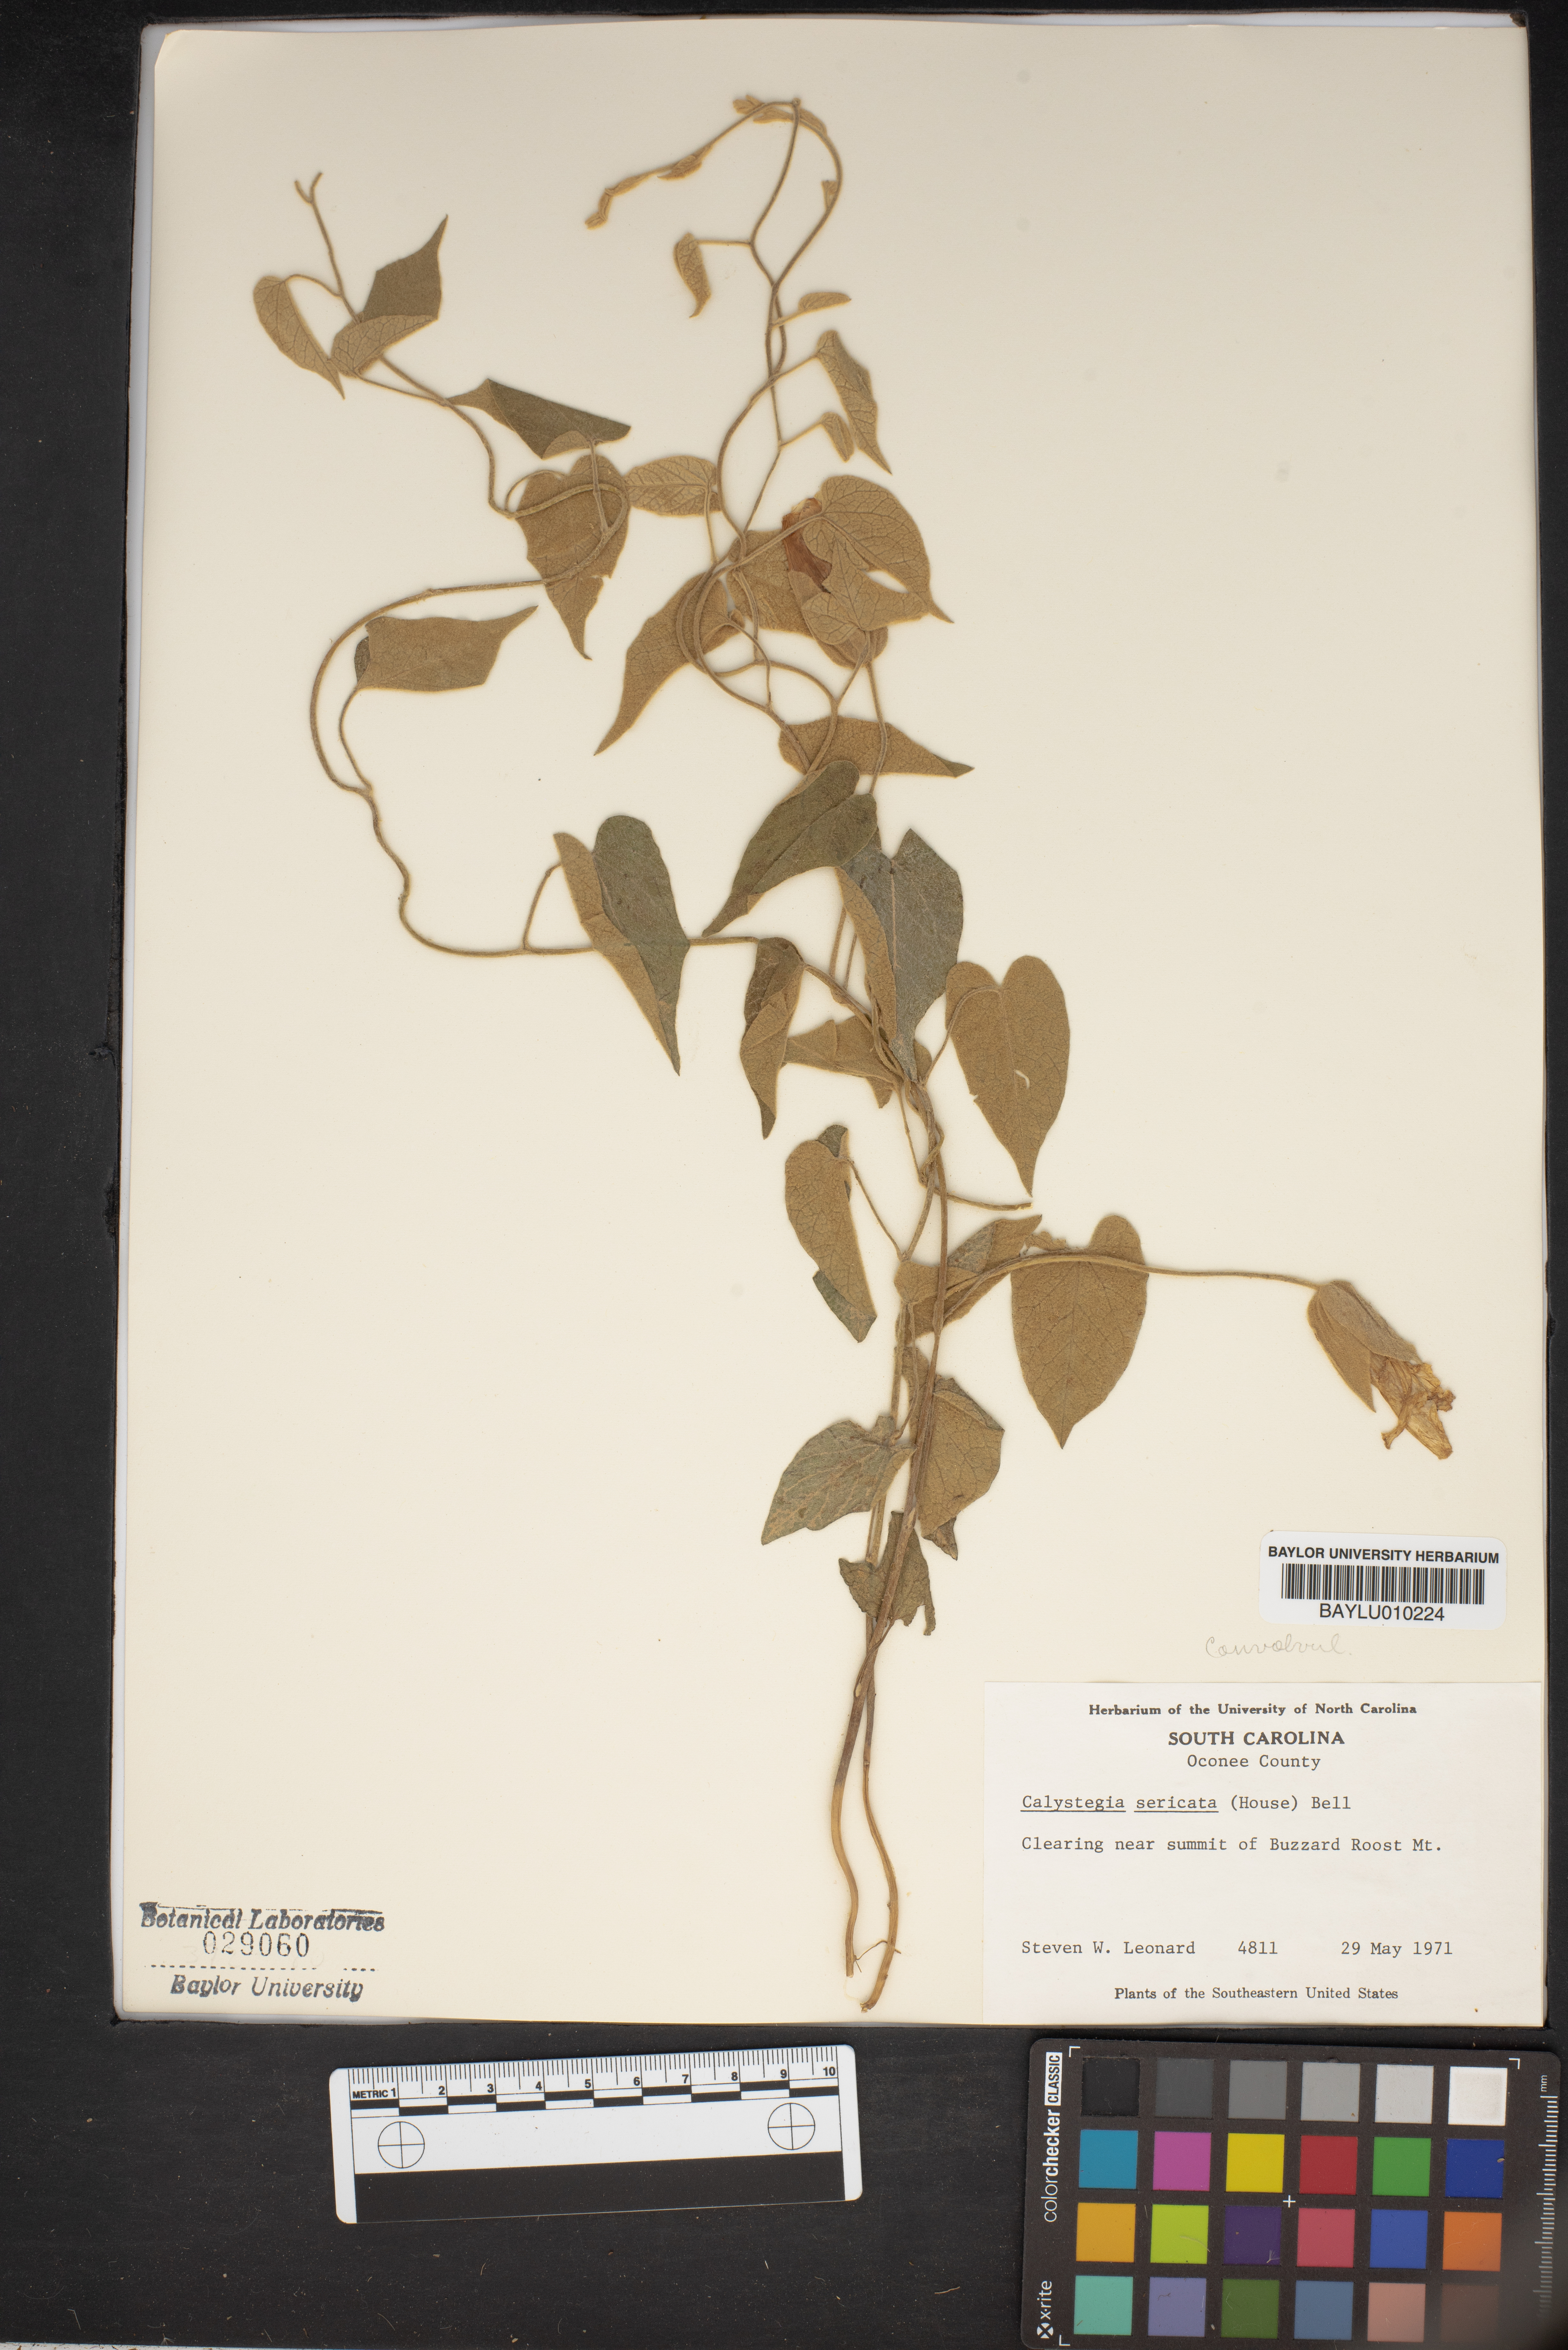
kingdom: Plantae
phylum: Tracheophyta
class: Magnoliopsida
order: Solanales
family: Convolvulaceae
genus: Calystegia
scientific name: Calystegia catesbeiana
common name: Catesby's false bindweed
